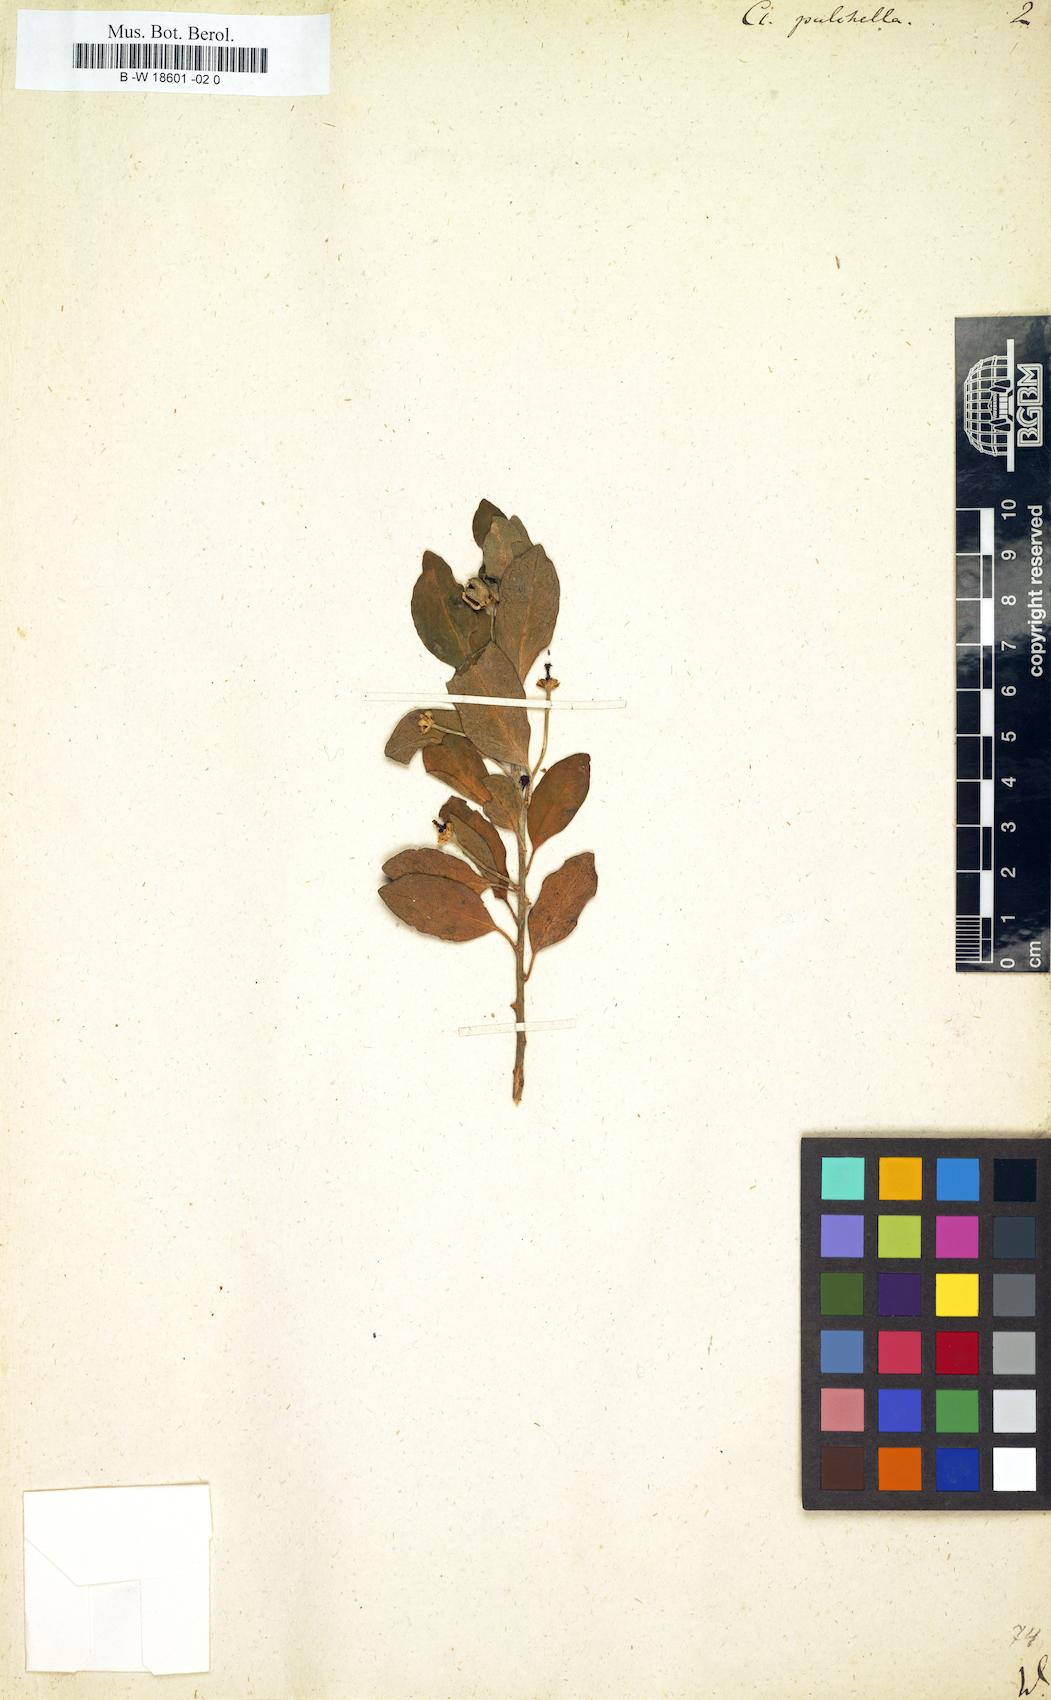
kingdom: Plantae
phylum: Tracheophyta
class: Magnoliopsida
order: Malpighiales
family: Peraceae
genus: Clutia
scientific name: Clutia
